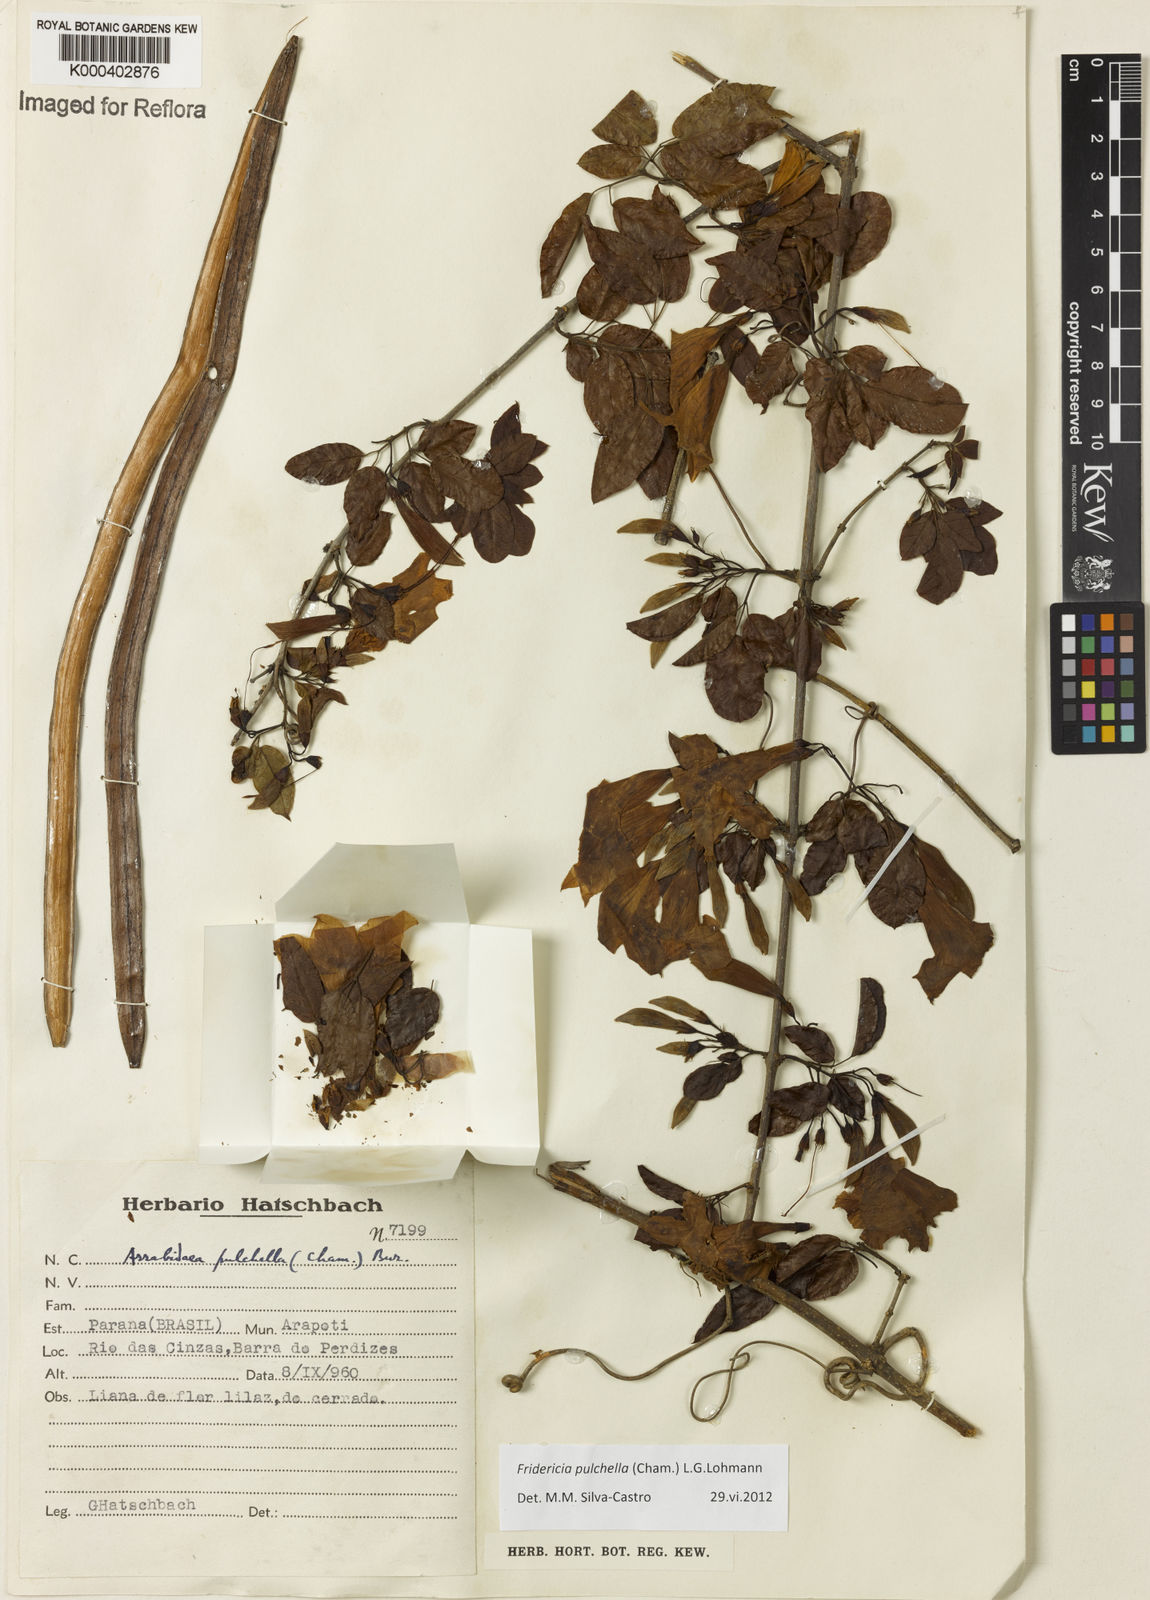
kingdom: Plantae
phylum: Tracheophyta
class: Magnoliopsida
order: Lamiales
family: Bignoniaceae
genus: Fridericia
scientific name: Fridericia
